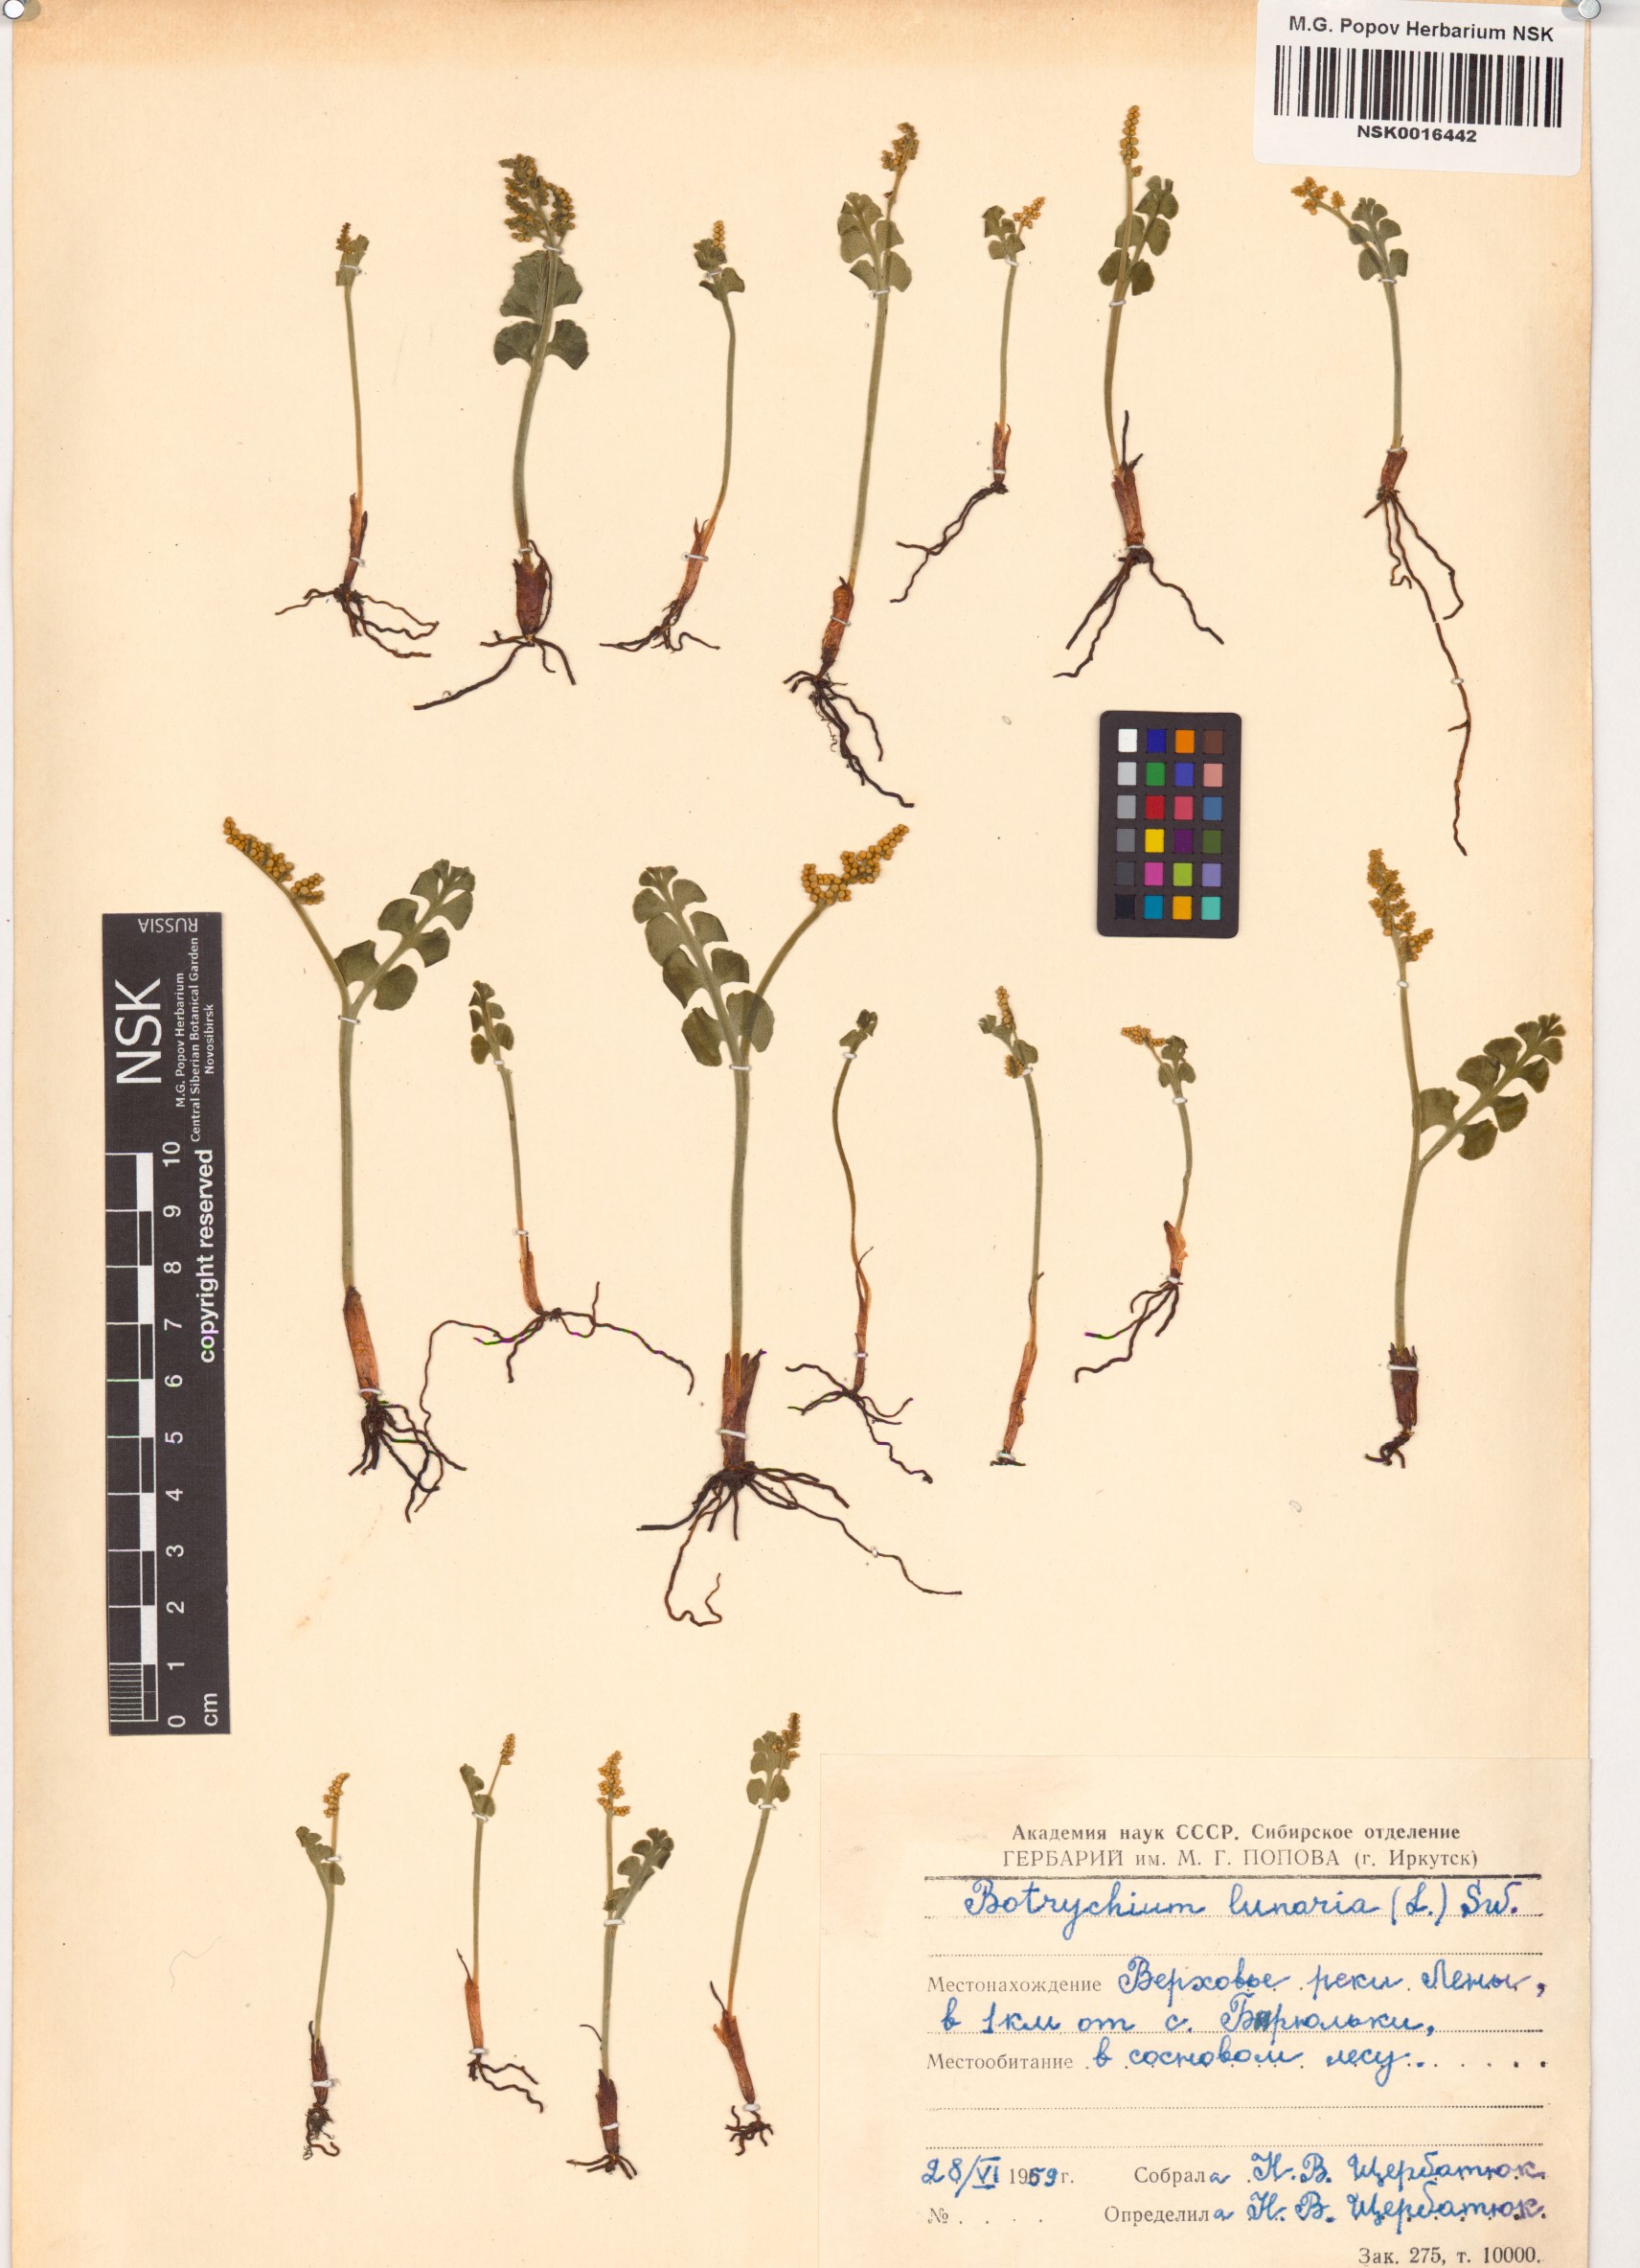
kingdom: Plantae
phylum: Tracheophyta
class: Polypodiopsida
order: Ophioglossales
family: Ophioglossaceae
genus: Botrychium
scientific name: Botrychium lunaria
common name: Moonwort
